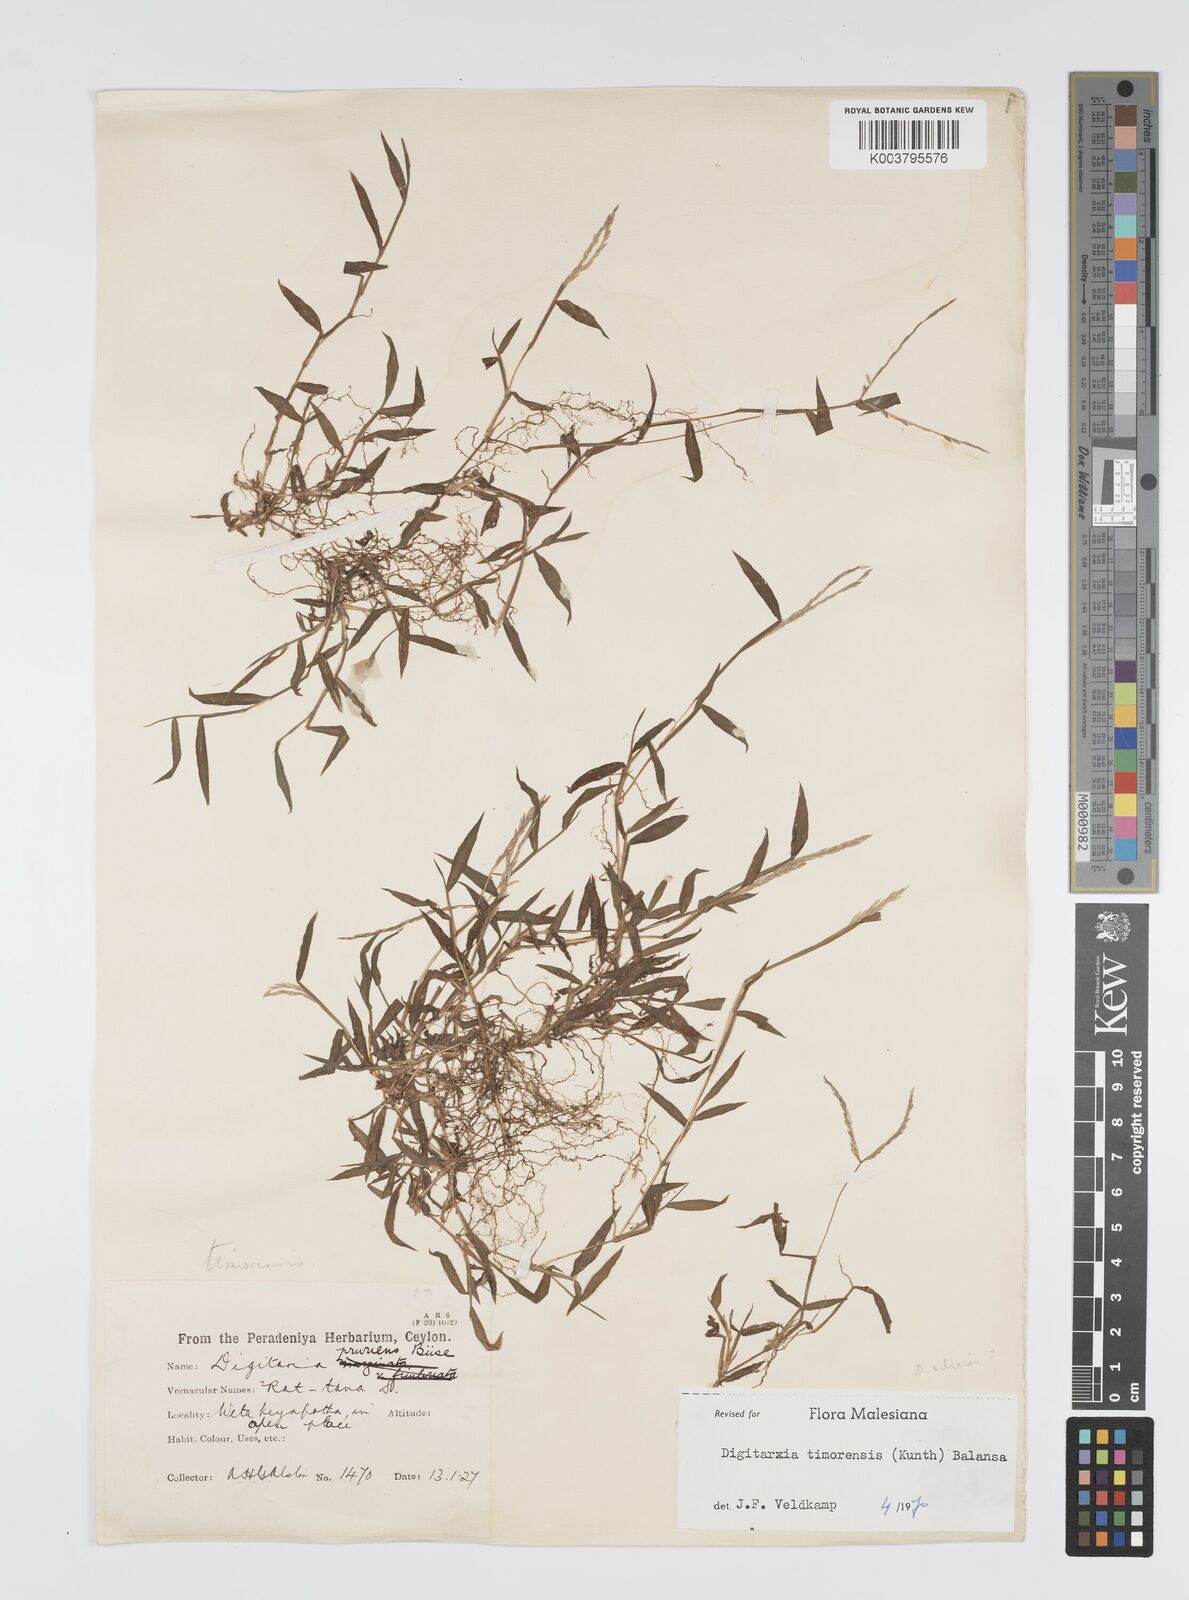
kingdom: Plantae
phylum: Tracheophyta
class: Liliopsida
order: Poales
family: Poaceae
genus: Digitaria
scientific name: Digitaria radicosa
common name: Trailing crabgrass
